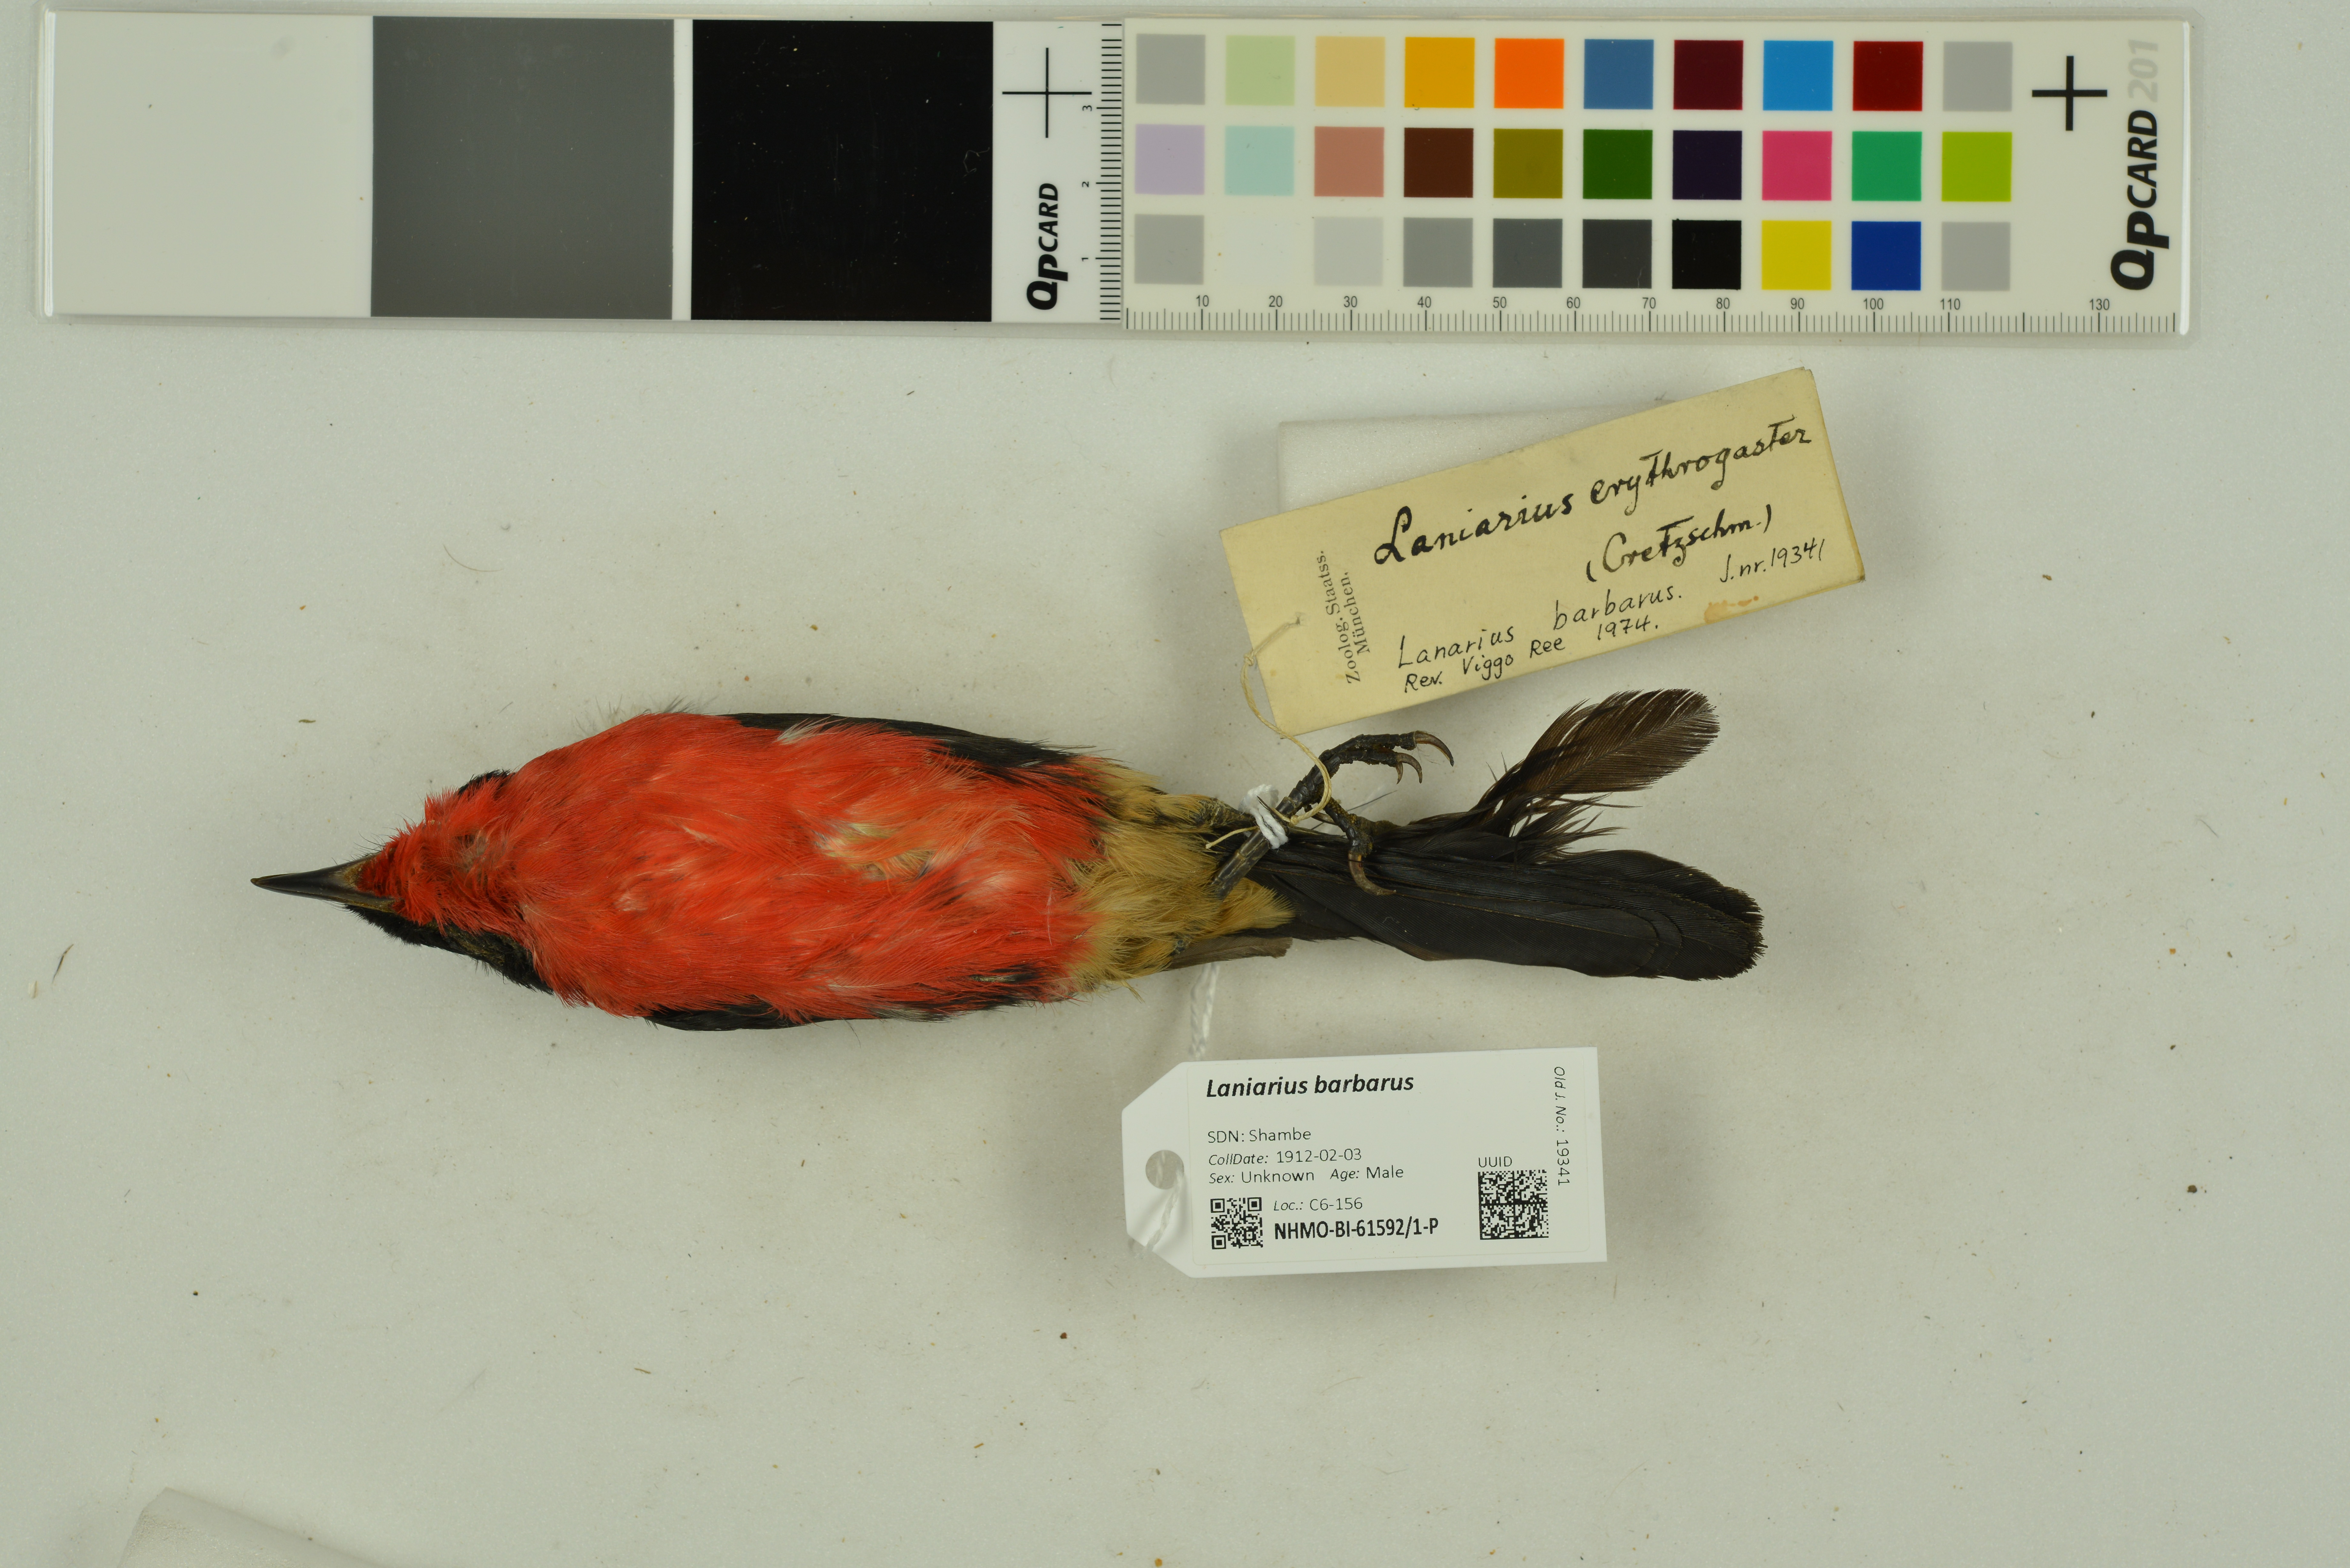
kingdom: Animalia
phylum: Chordata
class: Aves
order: Passeriformes
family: Malaconotidae
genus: Laniarius
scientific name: Laniarius barbarus
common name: Yellow-crowned gonolek
